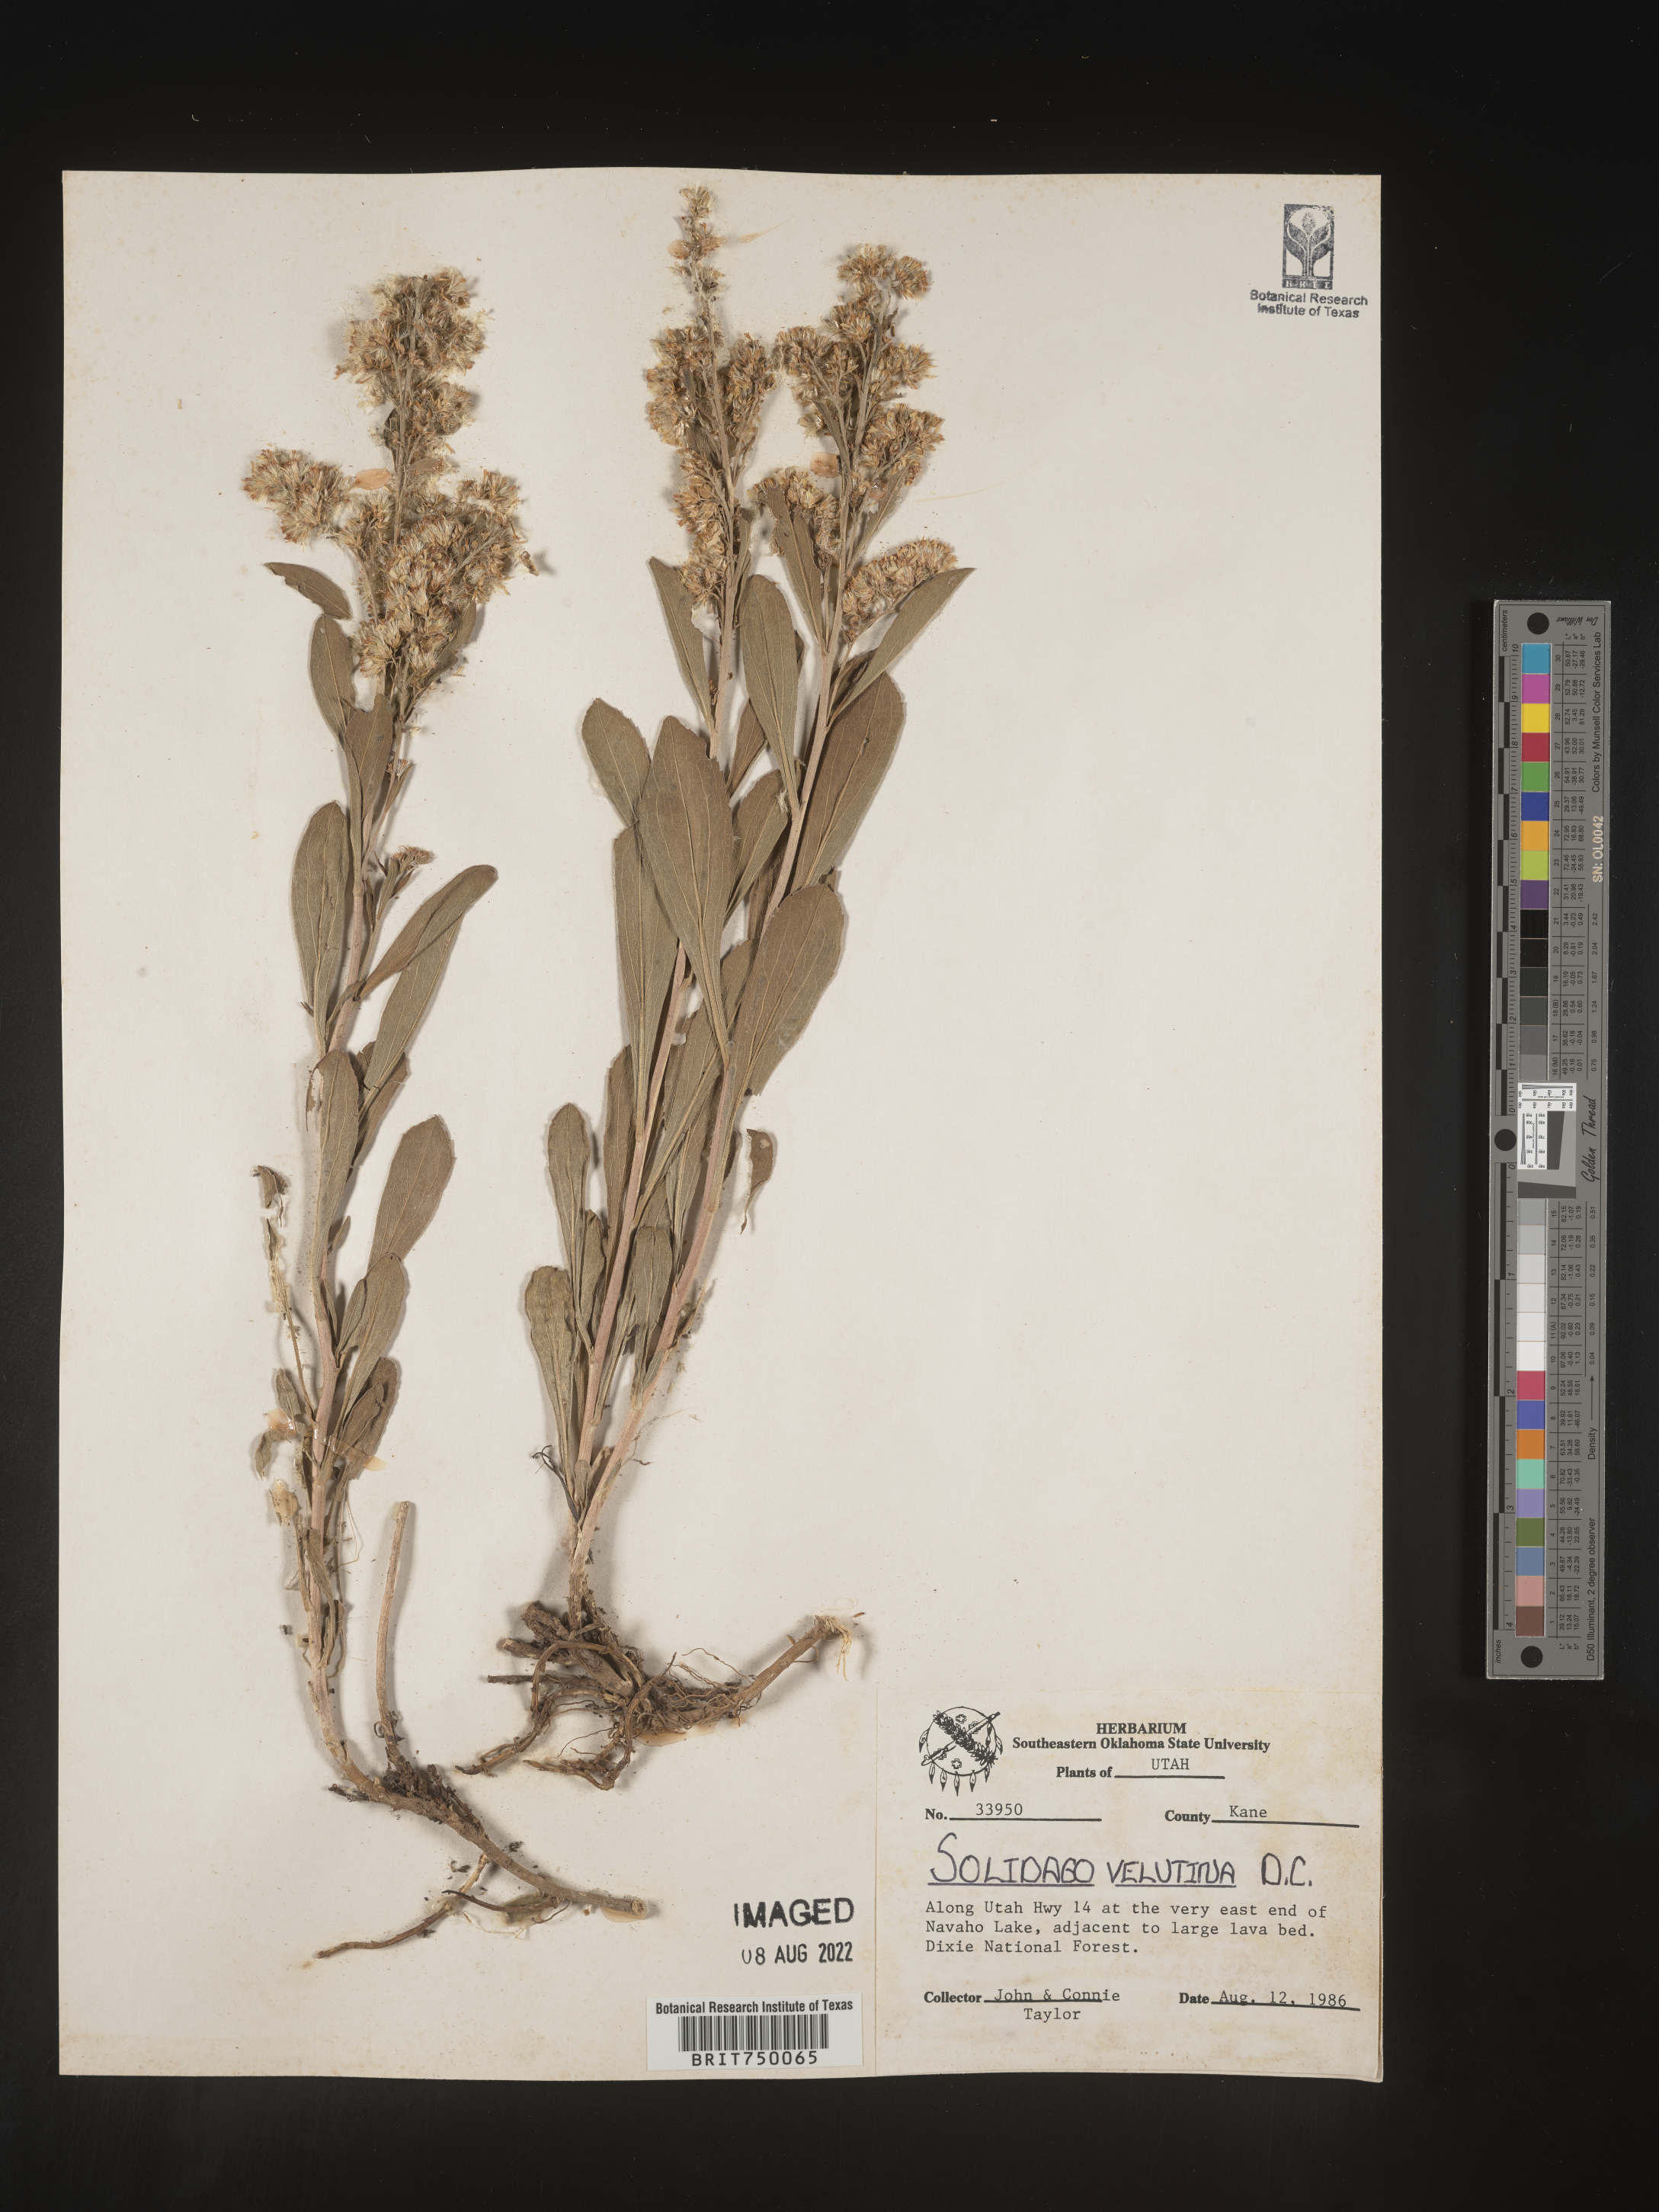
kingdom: Plantae
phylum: Tracheophyta
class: Magnoliopsida
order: Asterales
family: Asteraceae
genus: Solidago
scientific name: Solidago velutina
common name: Three-nerve goldenrod
